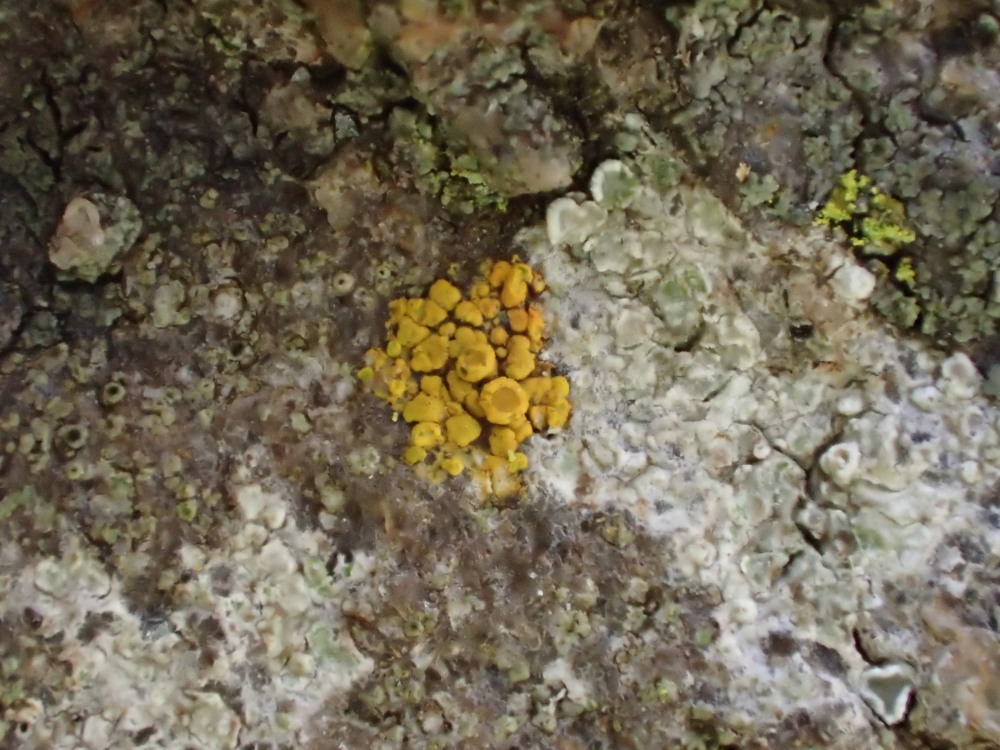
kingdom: Fungi
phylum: Ascomycota
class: Lecanoromycetes
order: Lecanorales
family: Lecanoraceae
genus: Polyozosia
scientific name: Polyozosia albescens
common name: cement-kantskivelav
